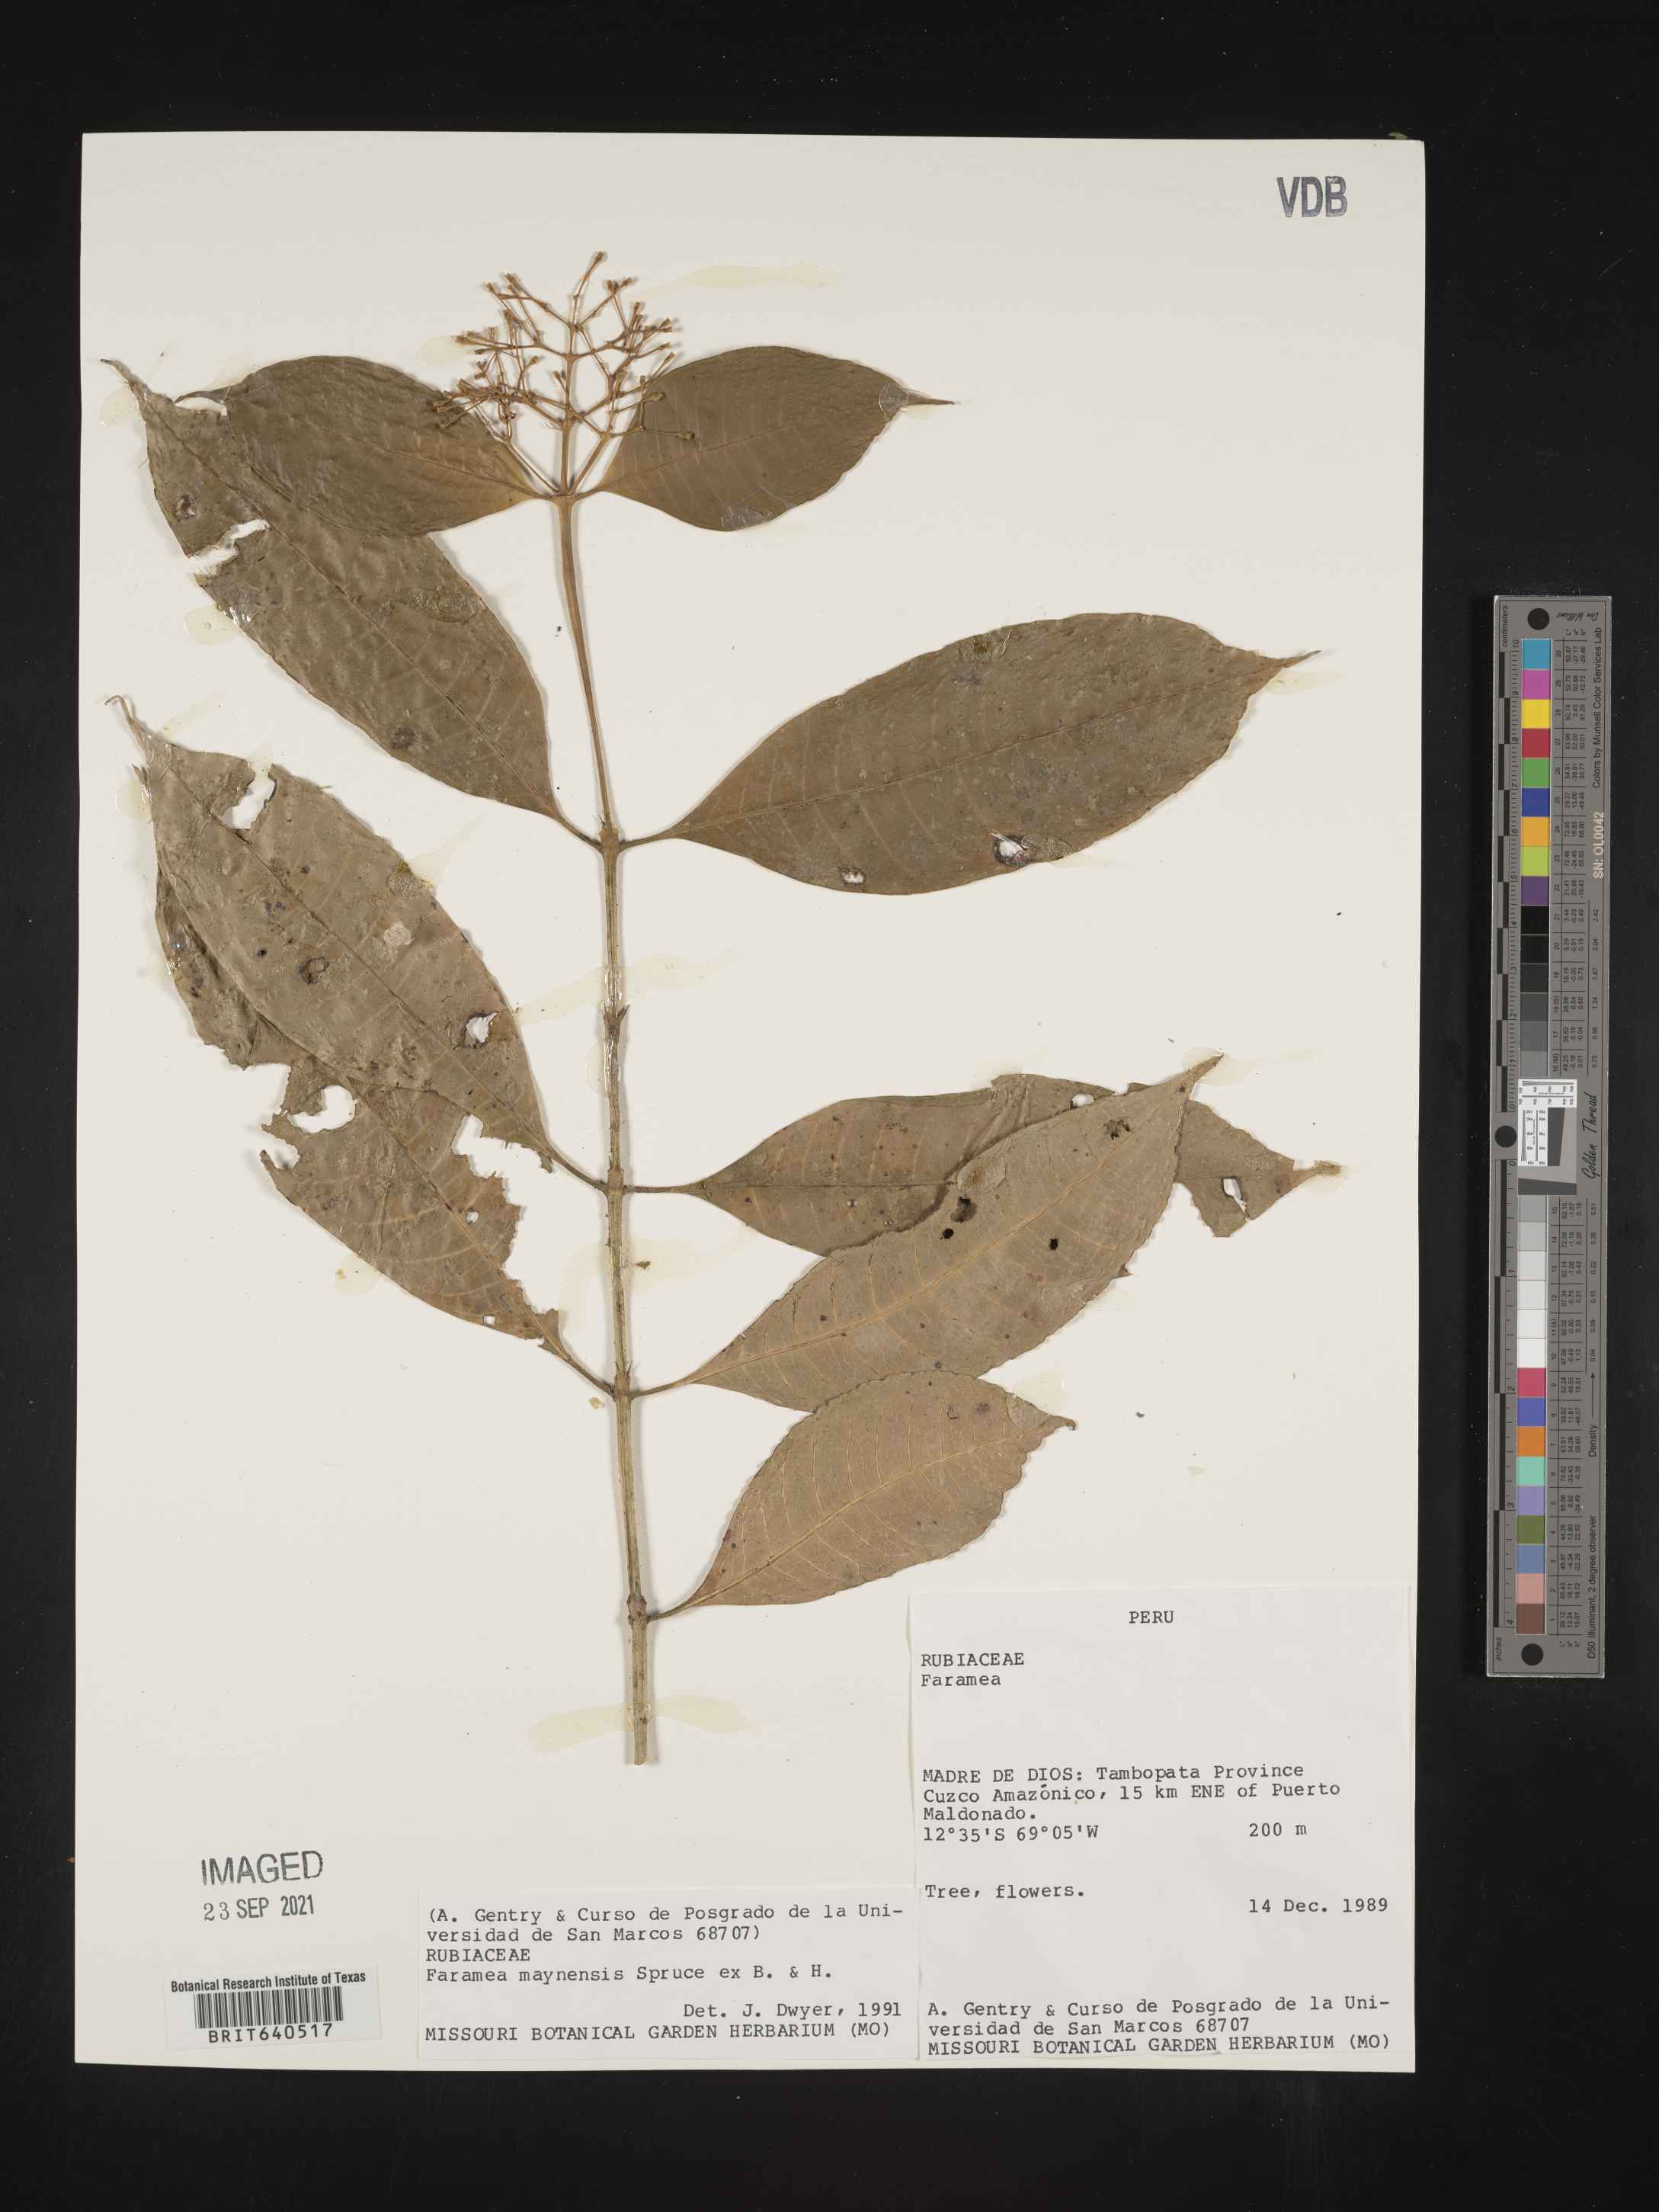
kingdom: Plantae
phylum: Tracheophyta
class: Magnoliopsida
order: Gentianales
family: Rubiaceae
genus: Faramea
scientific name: Faramea
